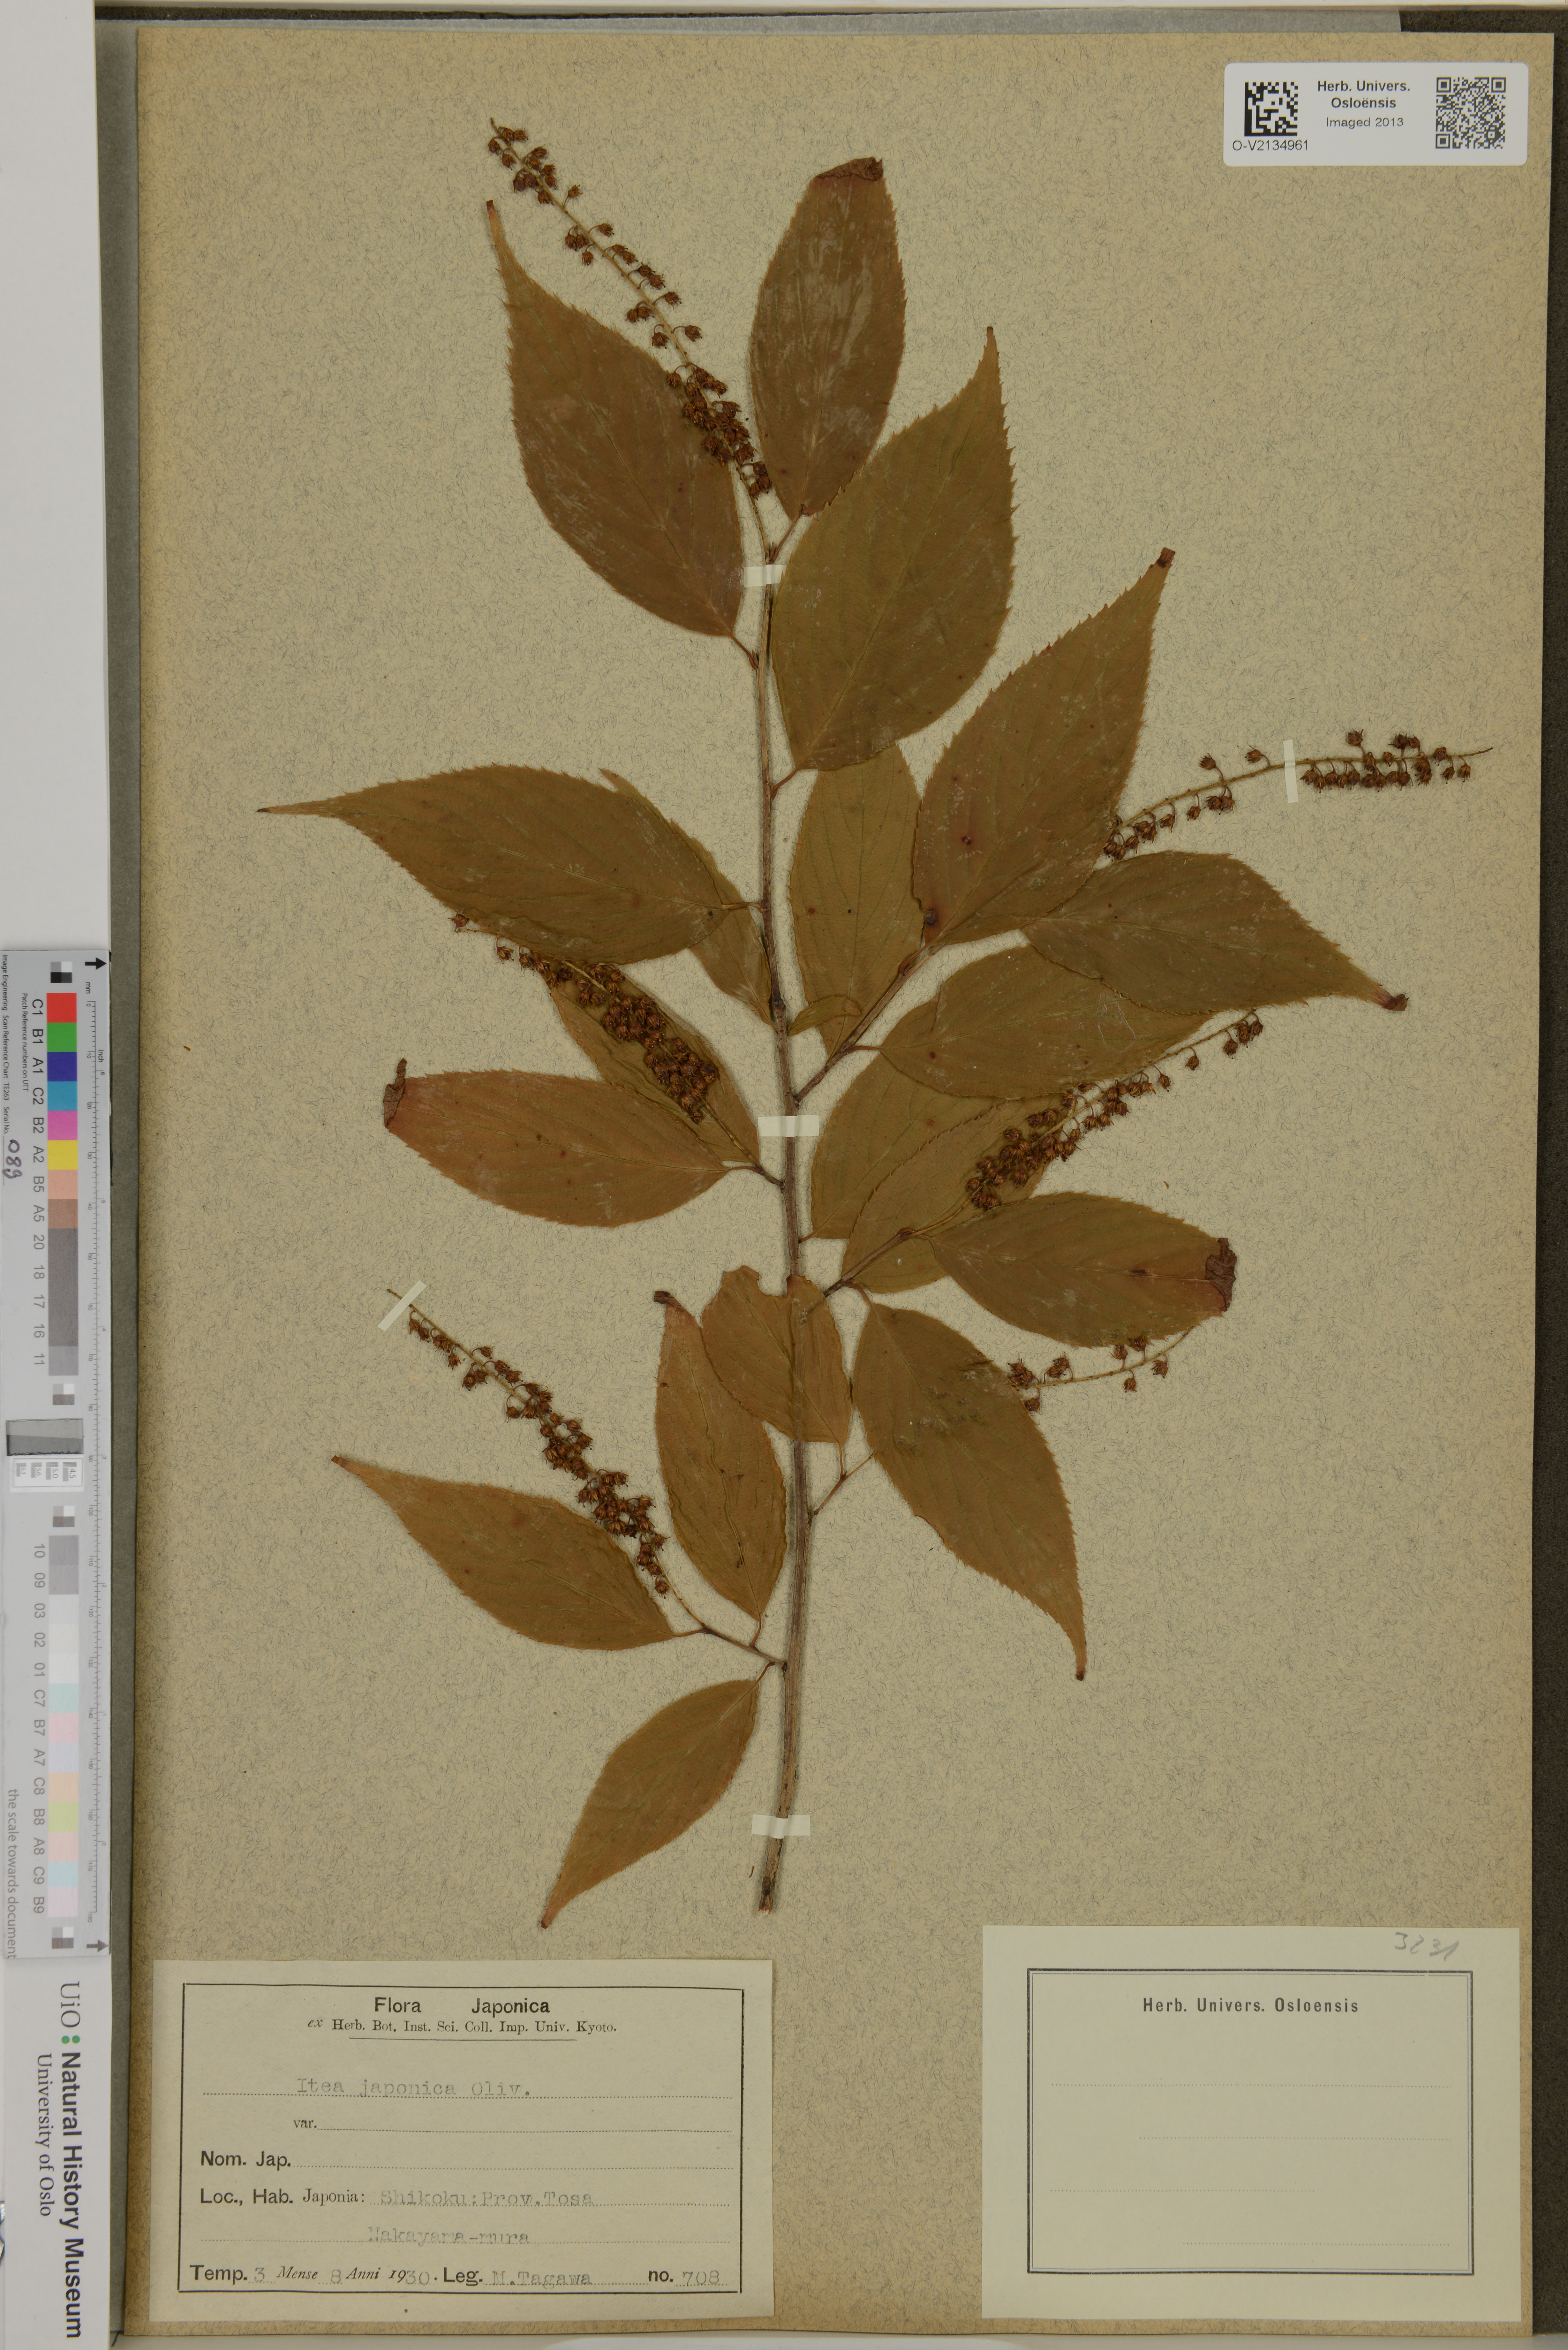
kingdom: Plantae
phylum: Tracheophyta
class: Magnoliopsida
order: Saxifragales
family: Iteaceae
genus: Itea
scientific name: Itea japonica
